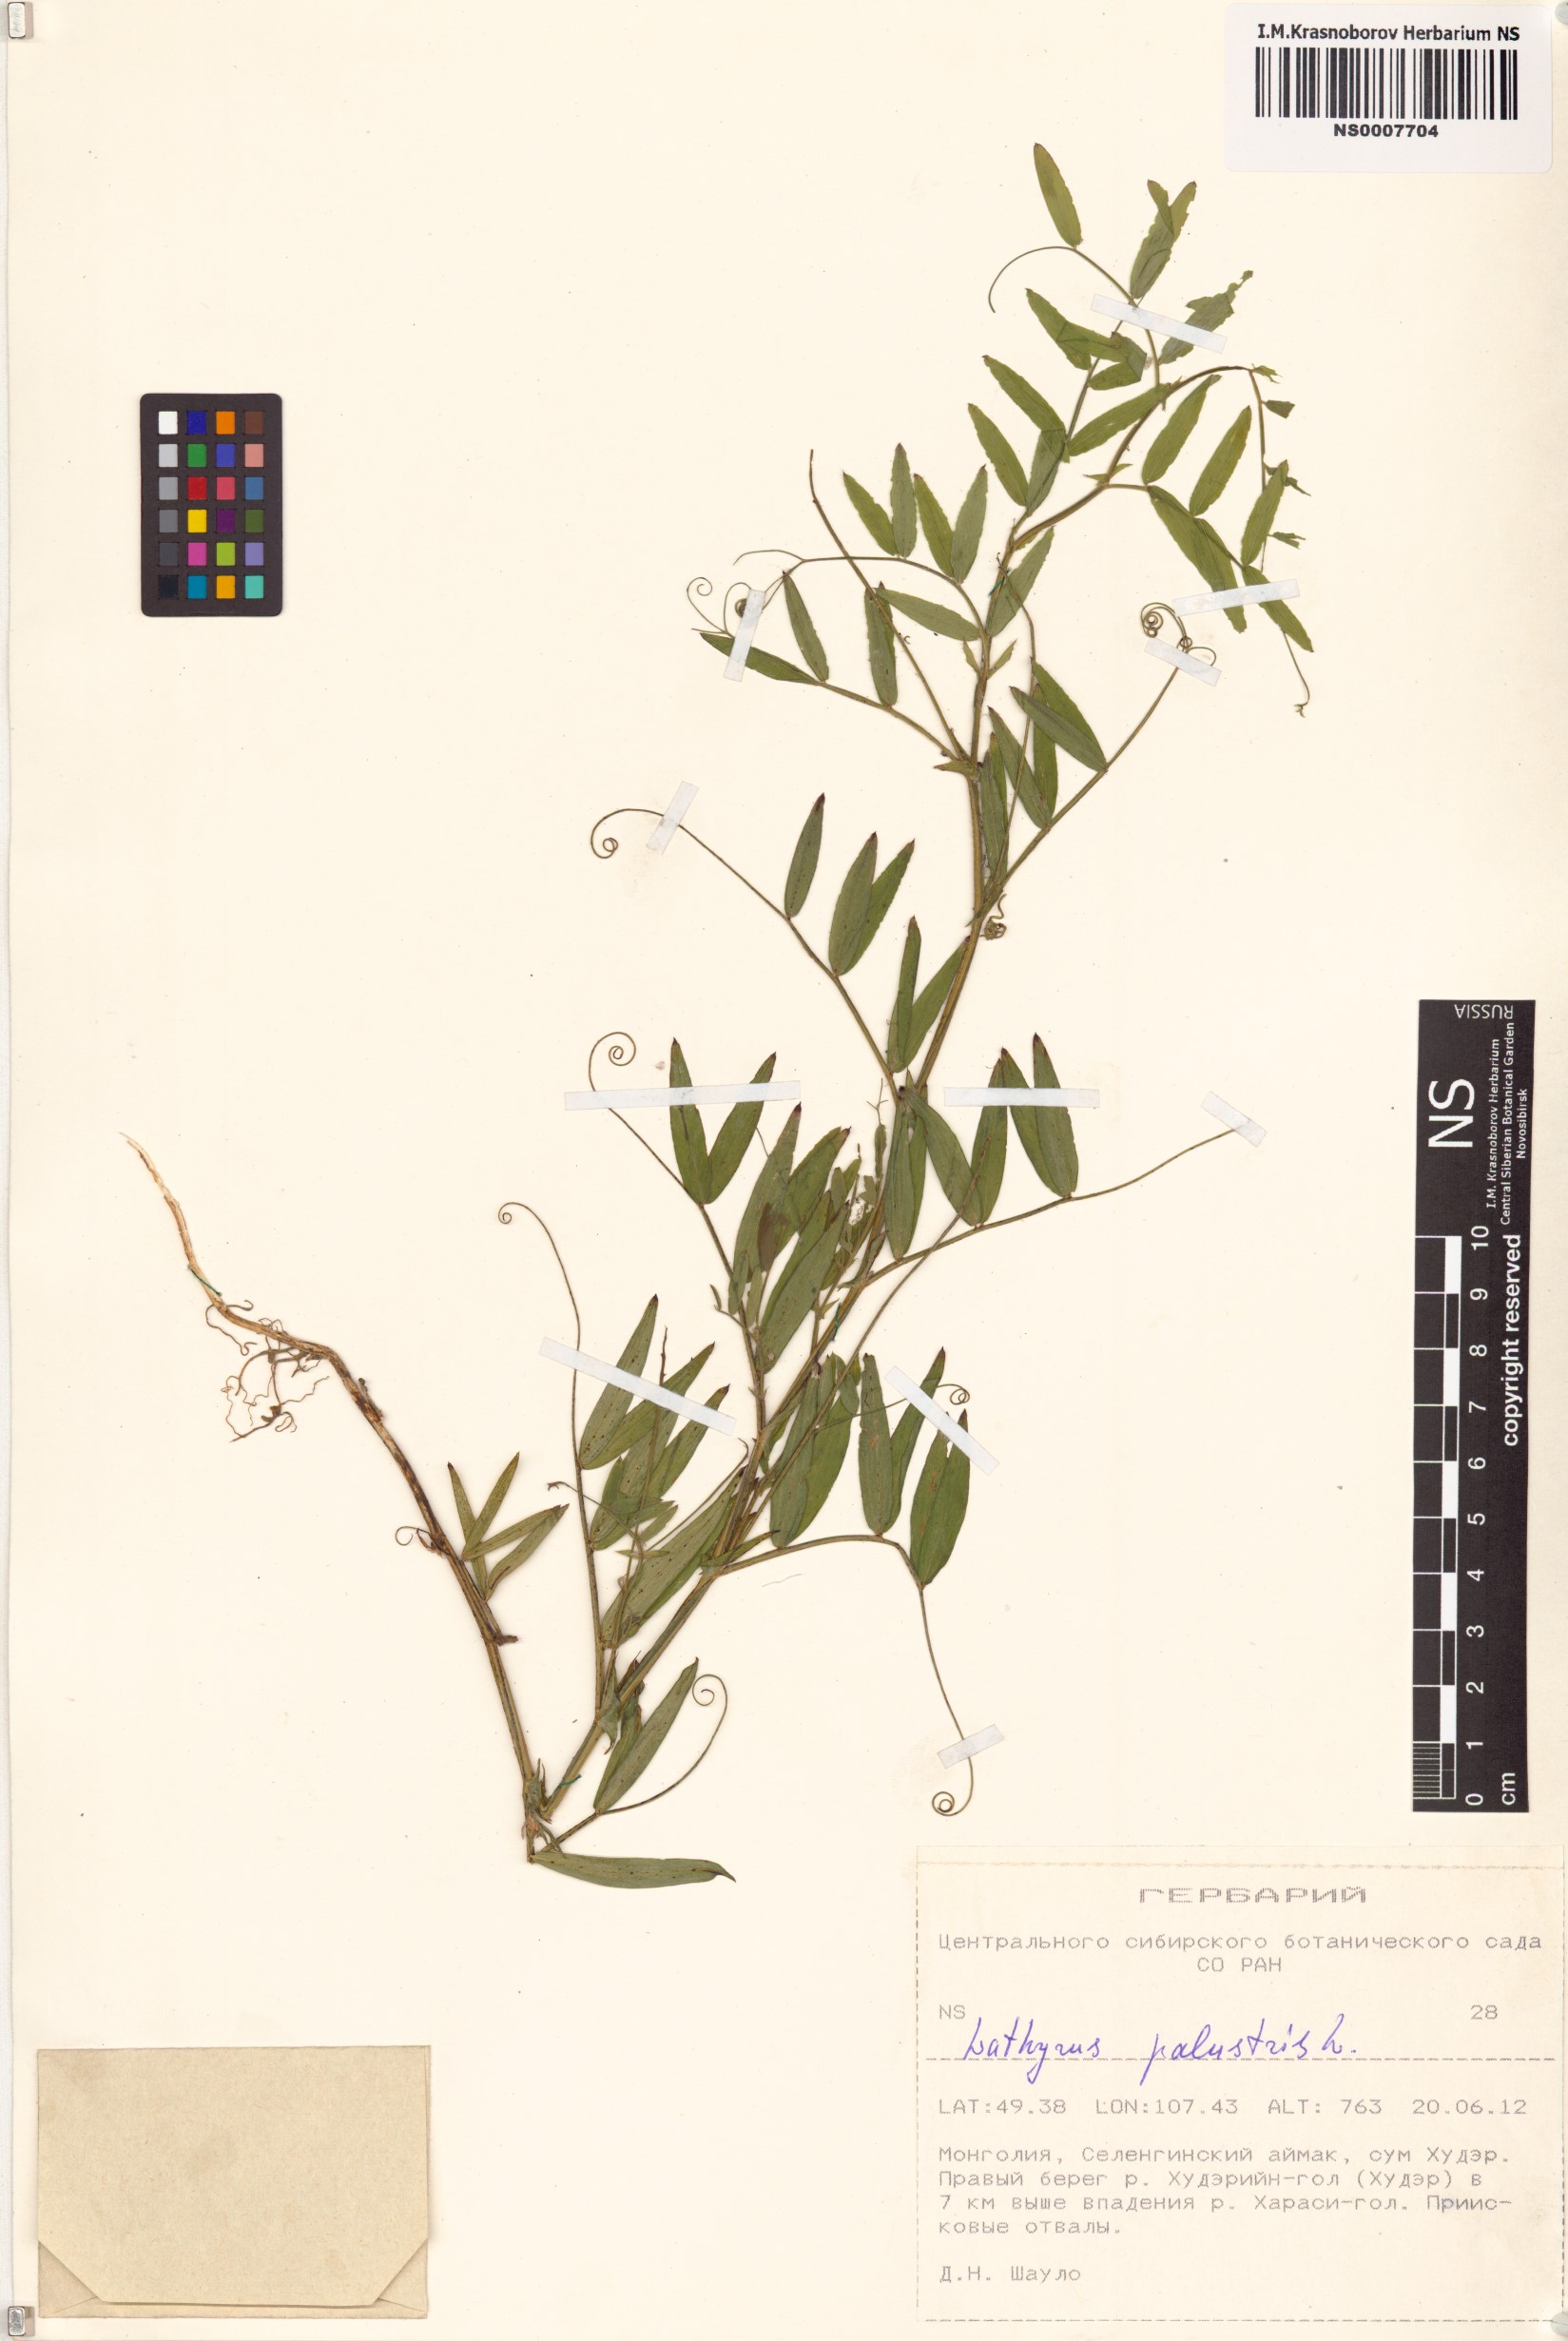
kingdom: Plantae
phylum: Tracheophyta
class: Magnoliopsida
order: Fabales
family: Fabaceae
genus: Lathyrus
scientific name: Lathyrus palustris
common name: Marsh pea
